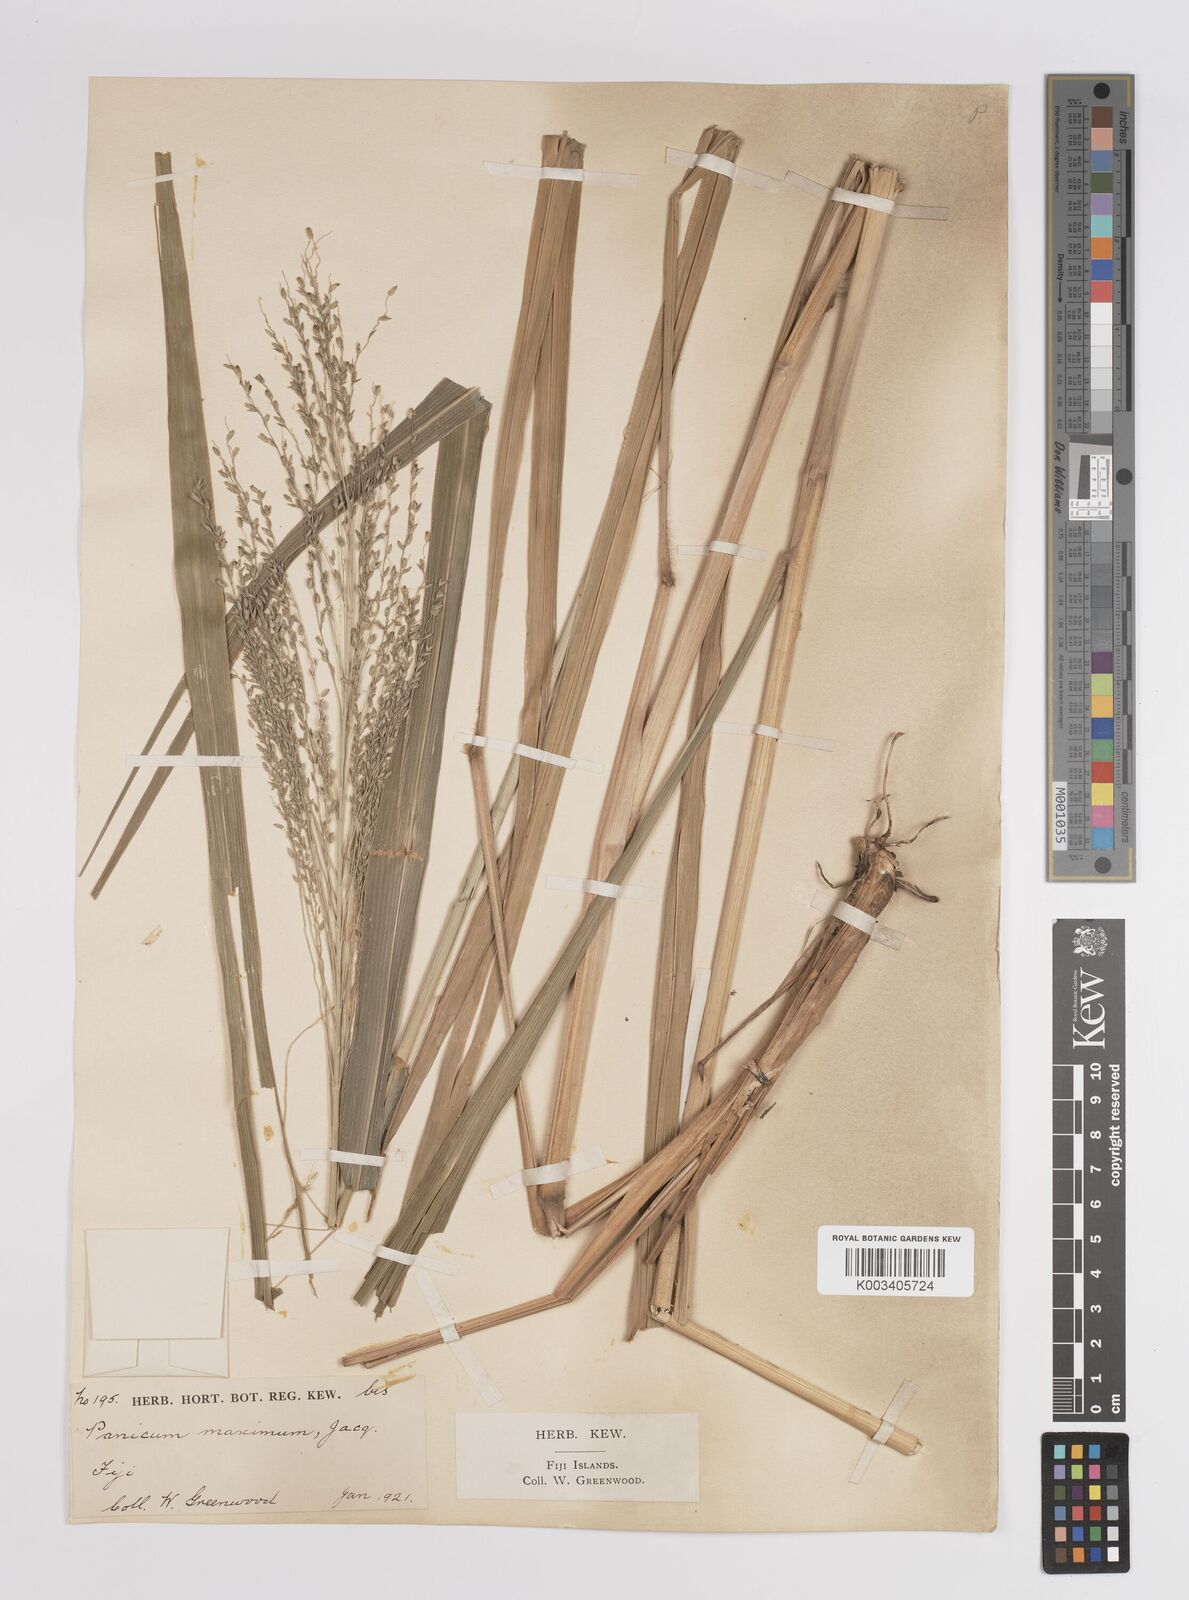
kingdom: Plantae
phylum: Tracheophyta
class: Liliopsida
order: Poales
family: Poaceae
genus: Megathyrsus
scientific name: Megathyrsus maximus
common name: Guineagrass
